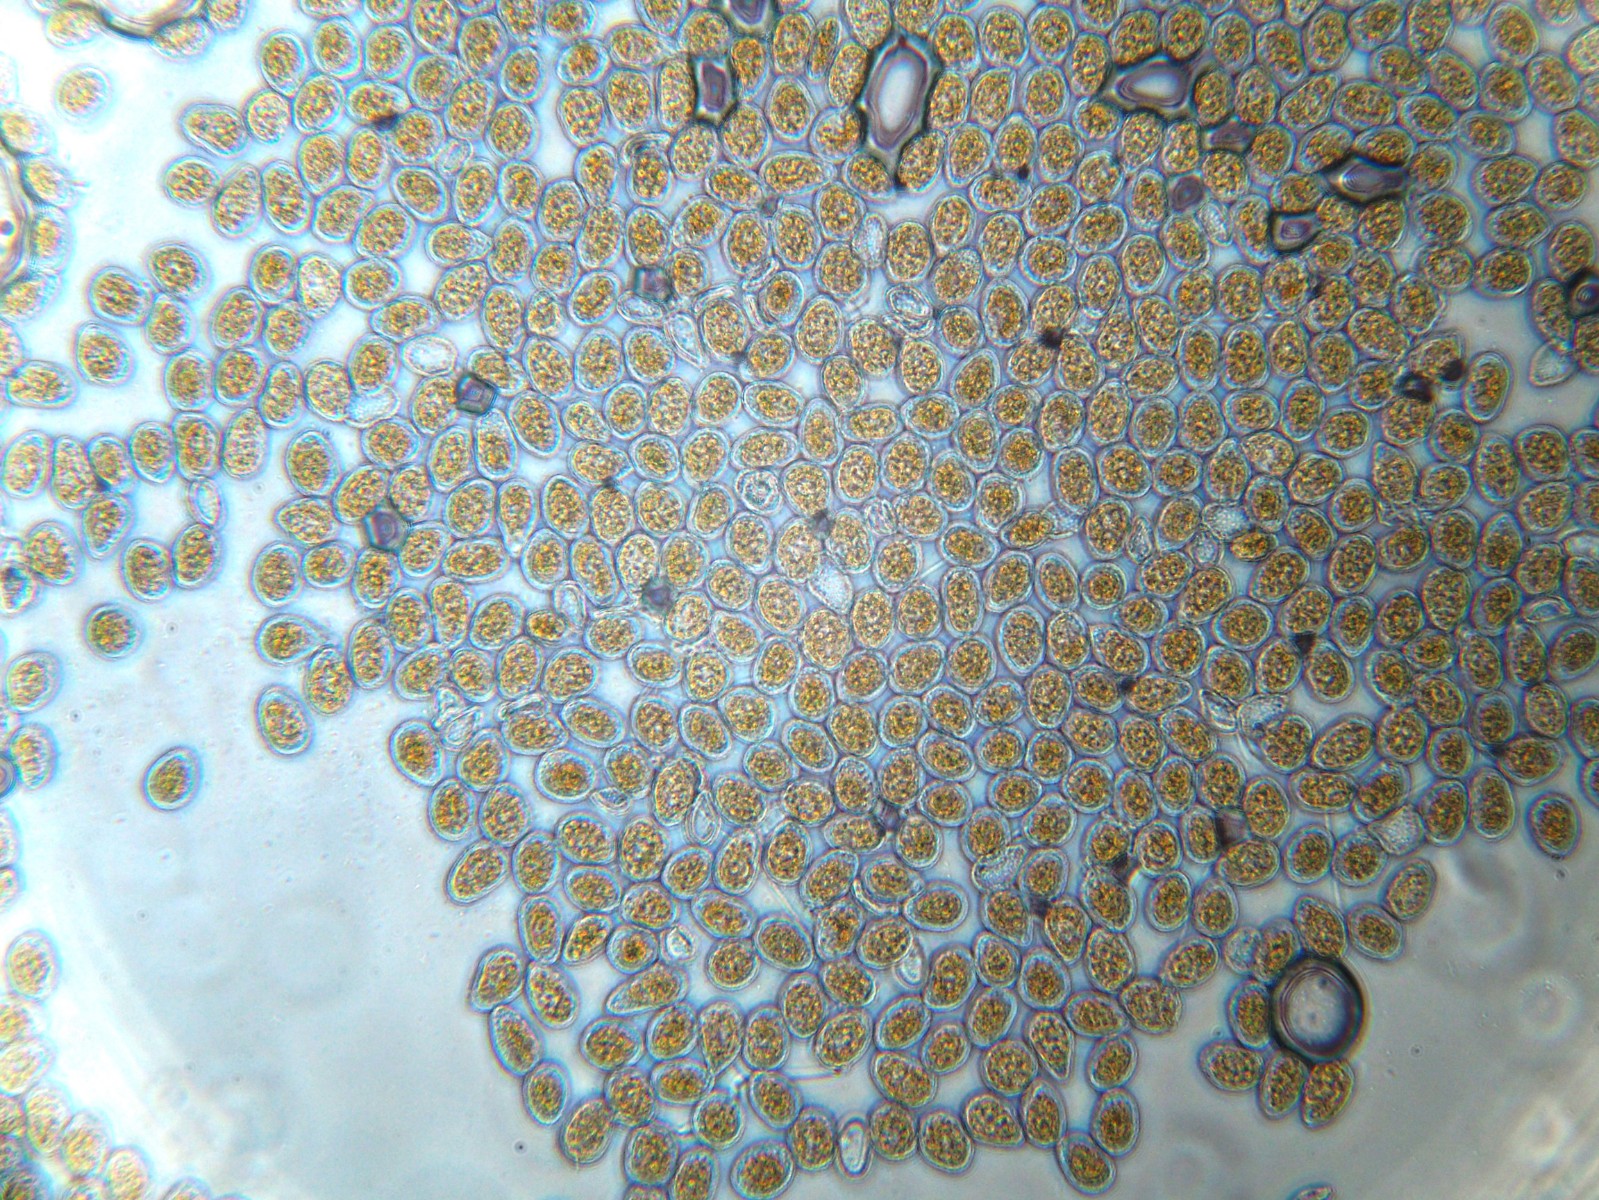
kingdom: Fungi
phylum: Basidiomycota
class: Pucciniomycetes
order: Pucciniales
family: Pucciniastraceae
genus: Pucciniastrum
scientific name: Pucciniastrum epilobii
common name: dueurt-nålerust
